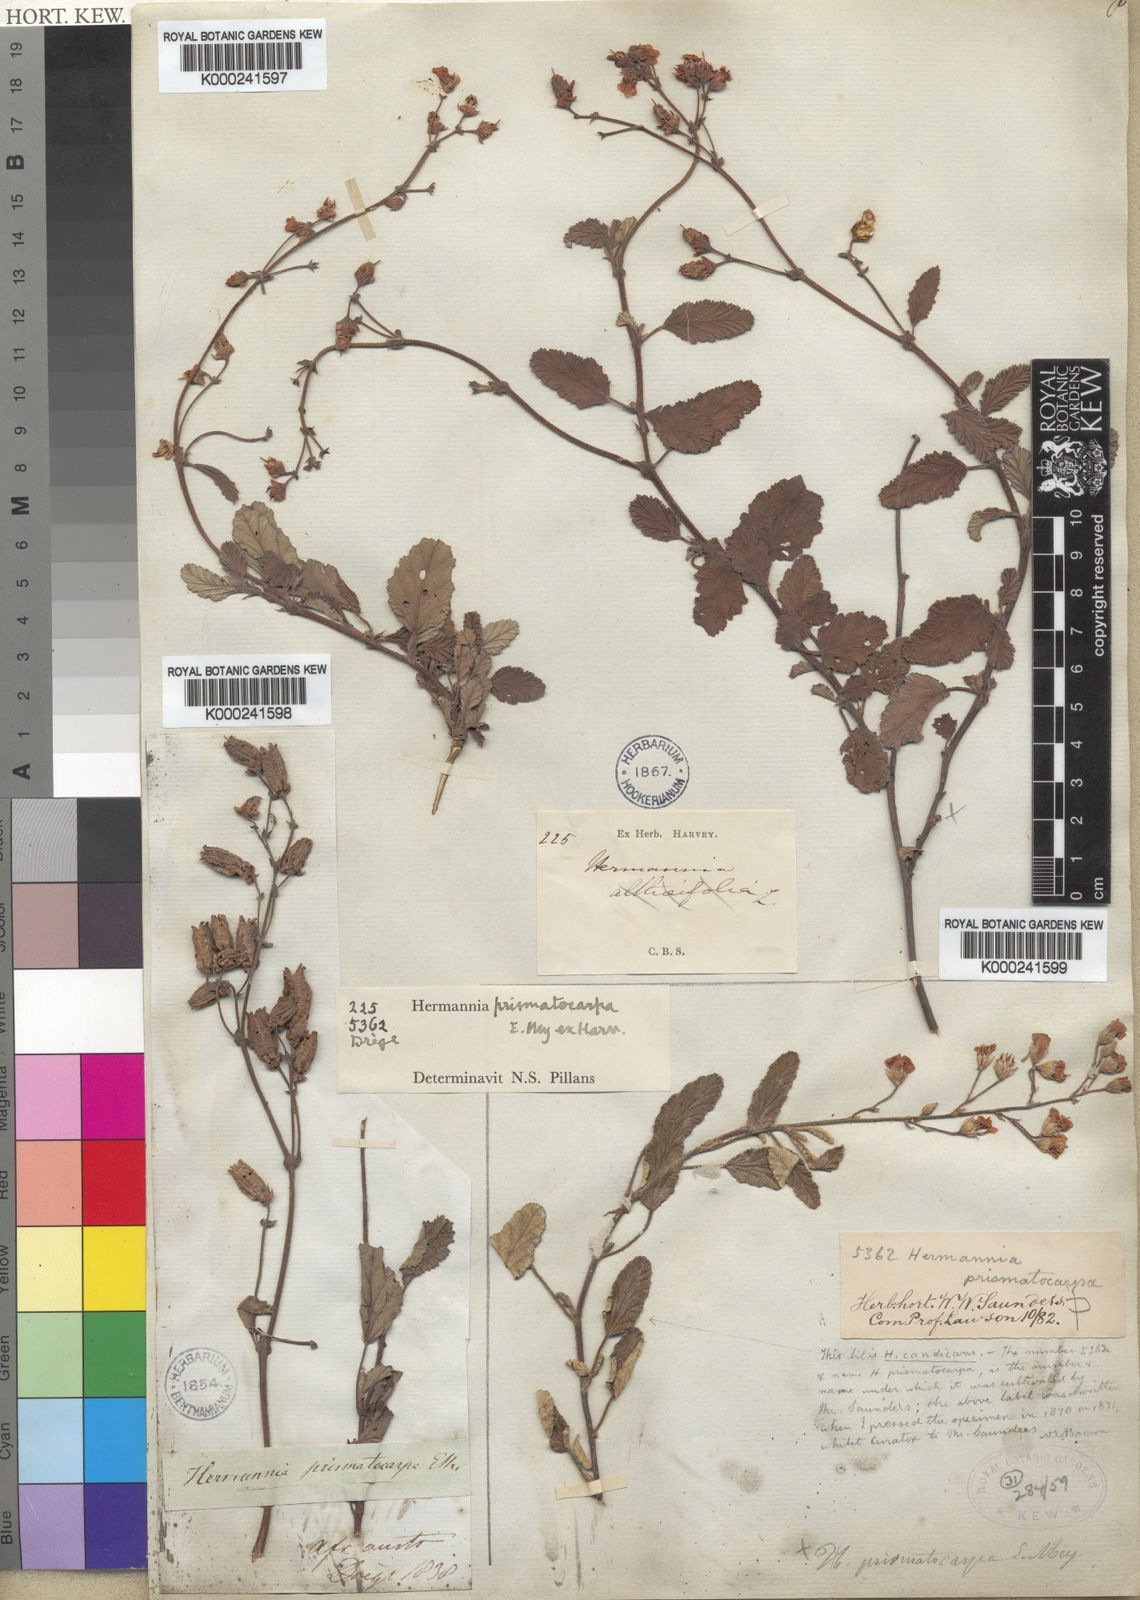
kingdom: Plantae
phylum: Tracheophyta
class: Magnoliopsida
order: Malvales
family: Malvaceae
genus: Hermannia
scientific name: Hermannia prismatocarpa
